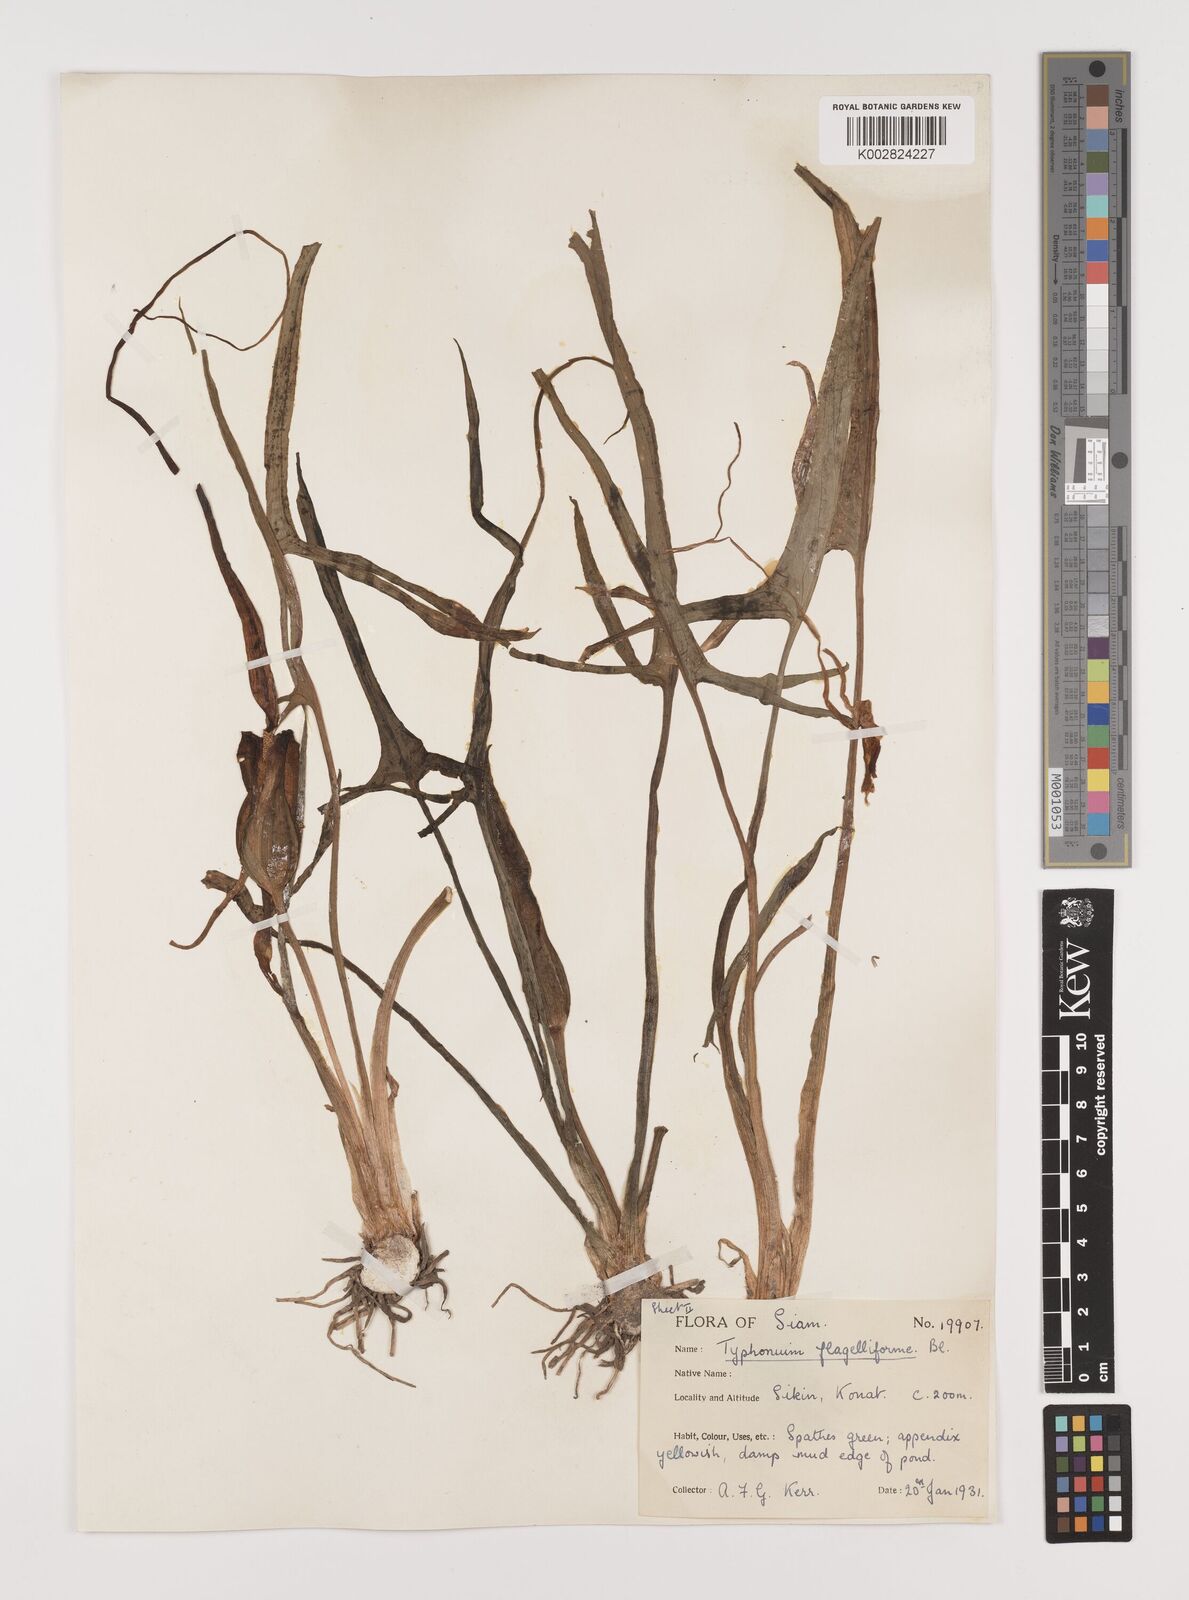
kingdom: Plantae
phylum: Tracheophyta
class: Liliopsida
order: Alismatales
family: Araceae
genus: Typhonium
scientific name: Typhonium flagelliforme
